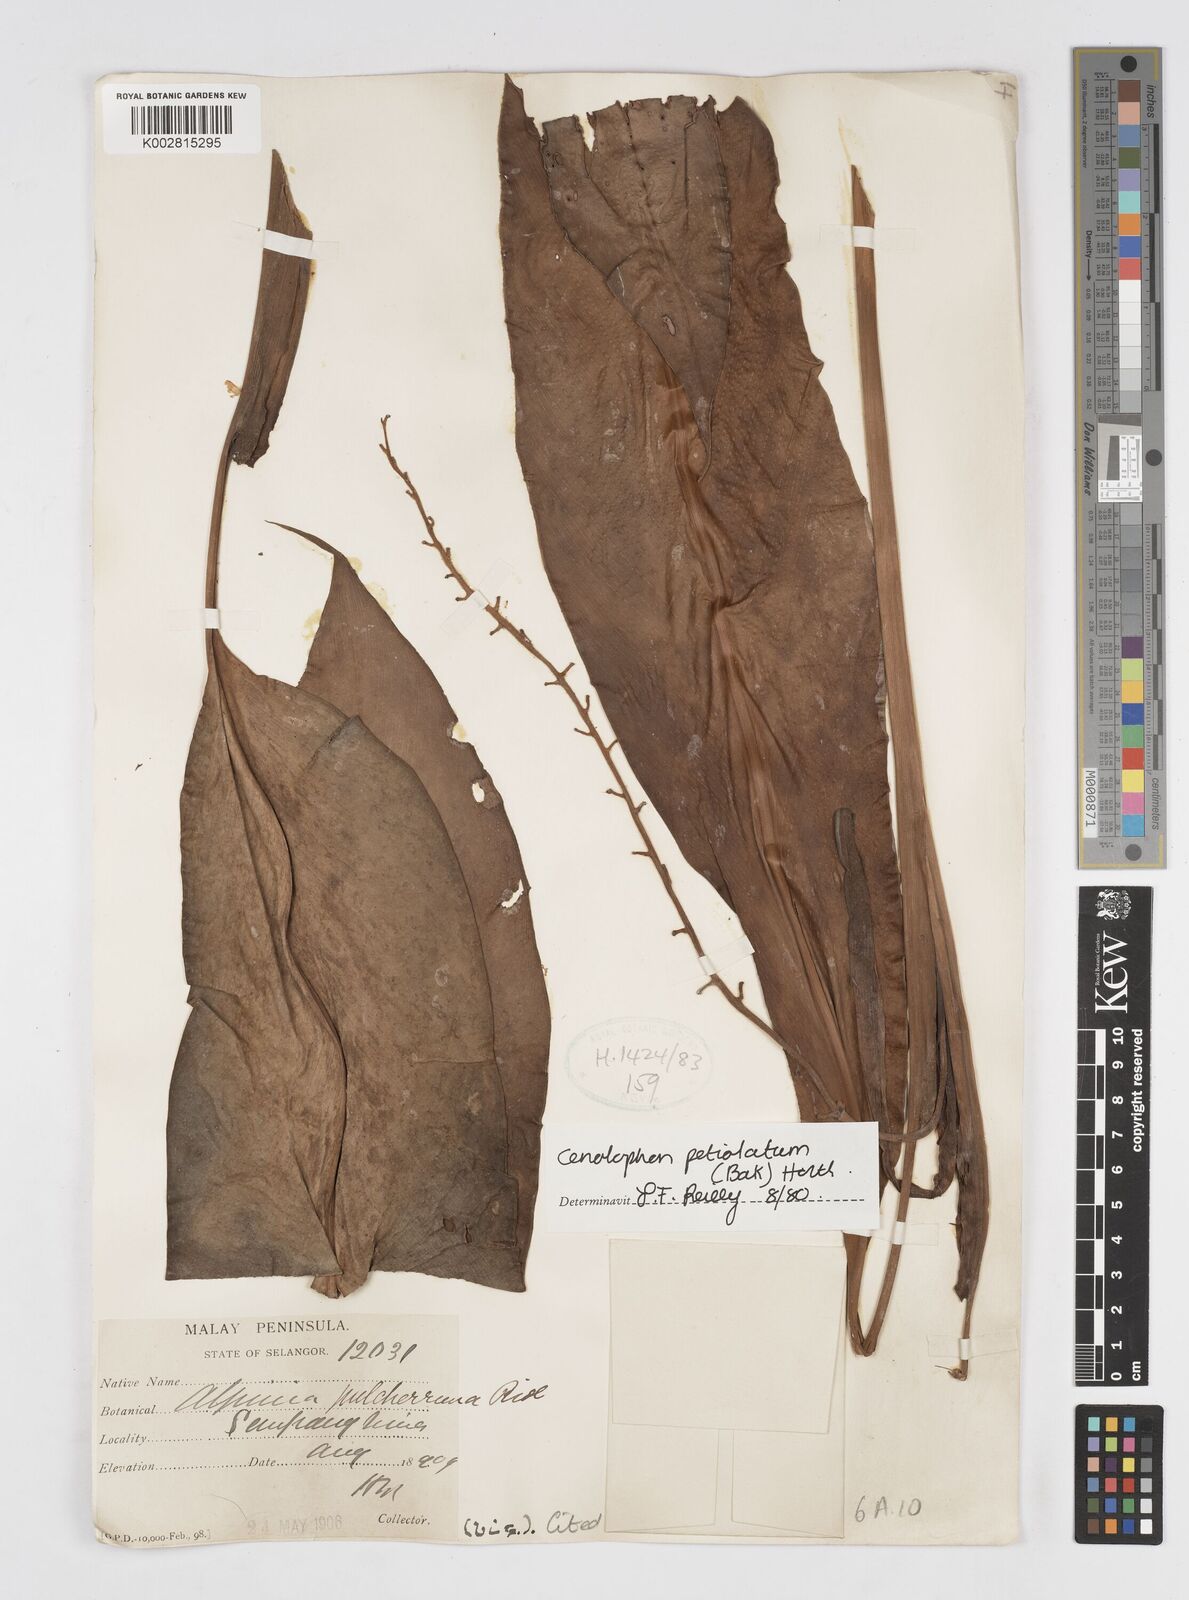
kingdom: Plantae
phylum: Tracheophyta
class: Liliopsida
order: Zingiberales
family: Zingiberaceae
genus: Alpinia
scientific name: Alpinia petiolata
